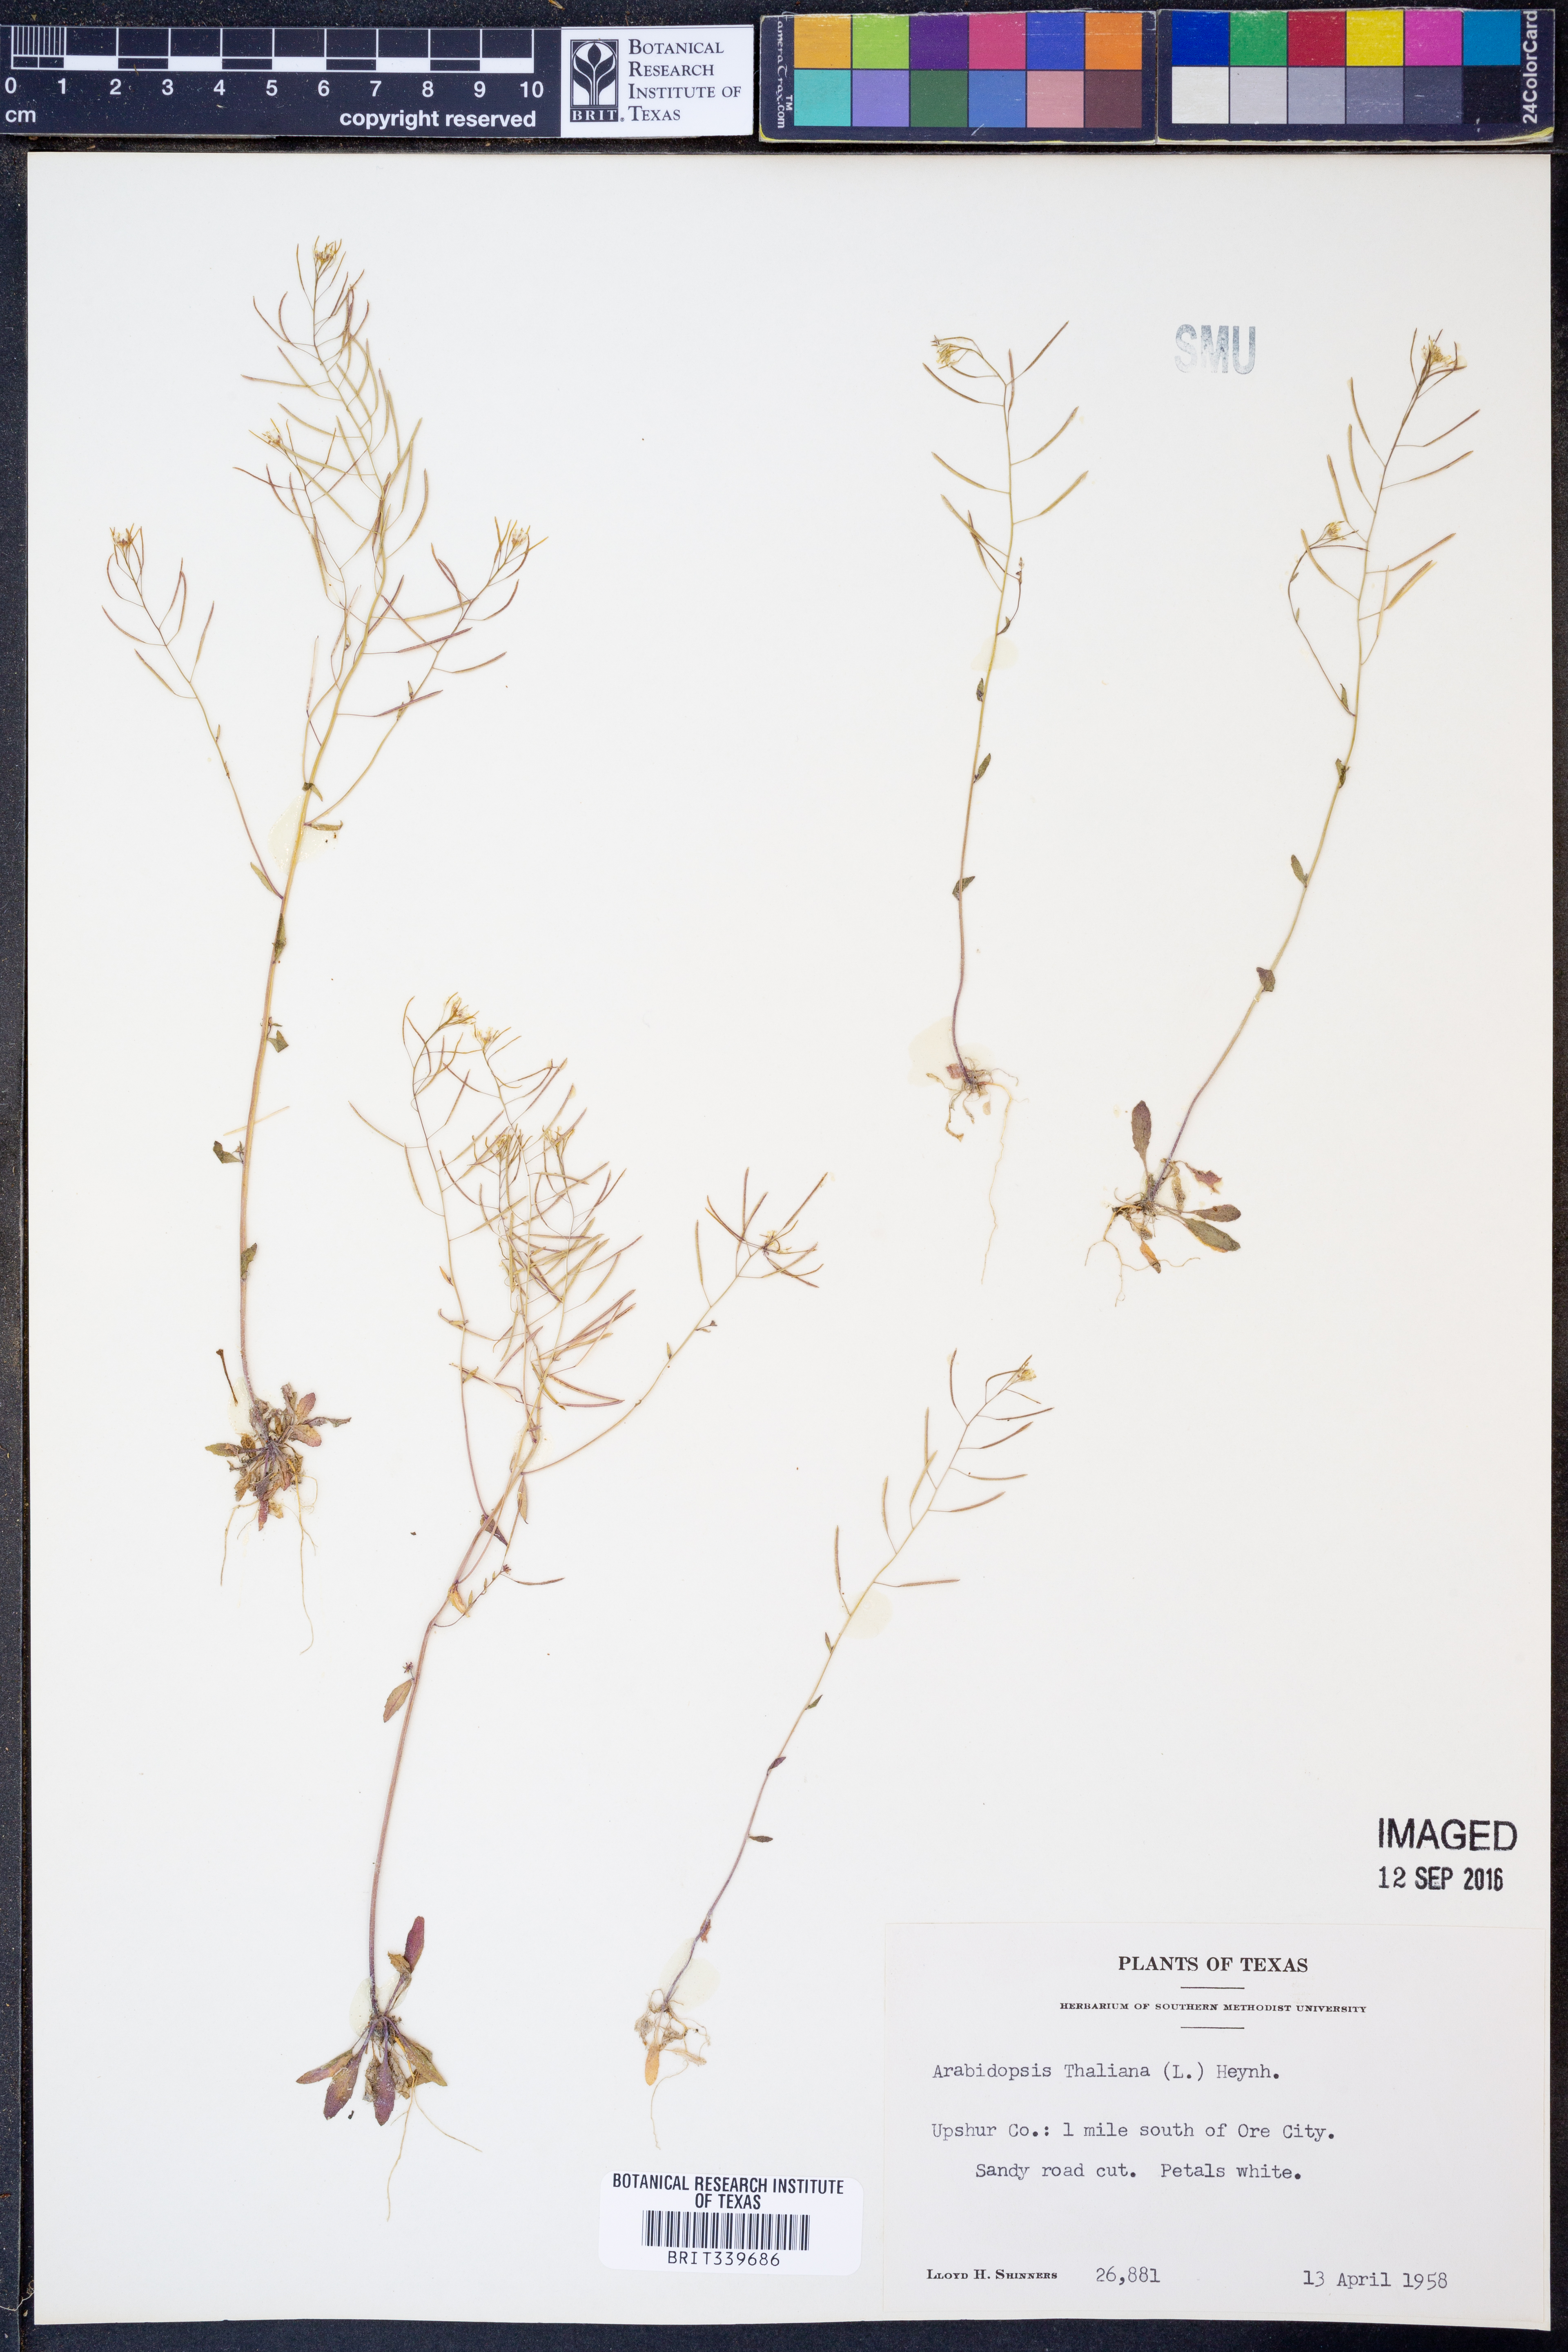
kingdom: Plantae
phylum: Tracheophyta
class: Magnoliopsida
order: Brassicales
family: Brassicaceae
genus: Arabidopsis
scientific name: Arabidopsis thaliana
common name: Thale cress
